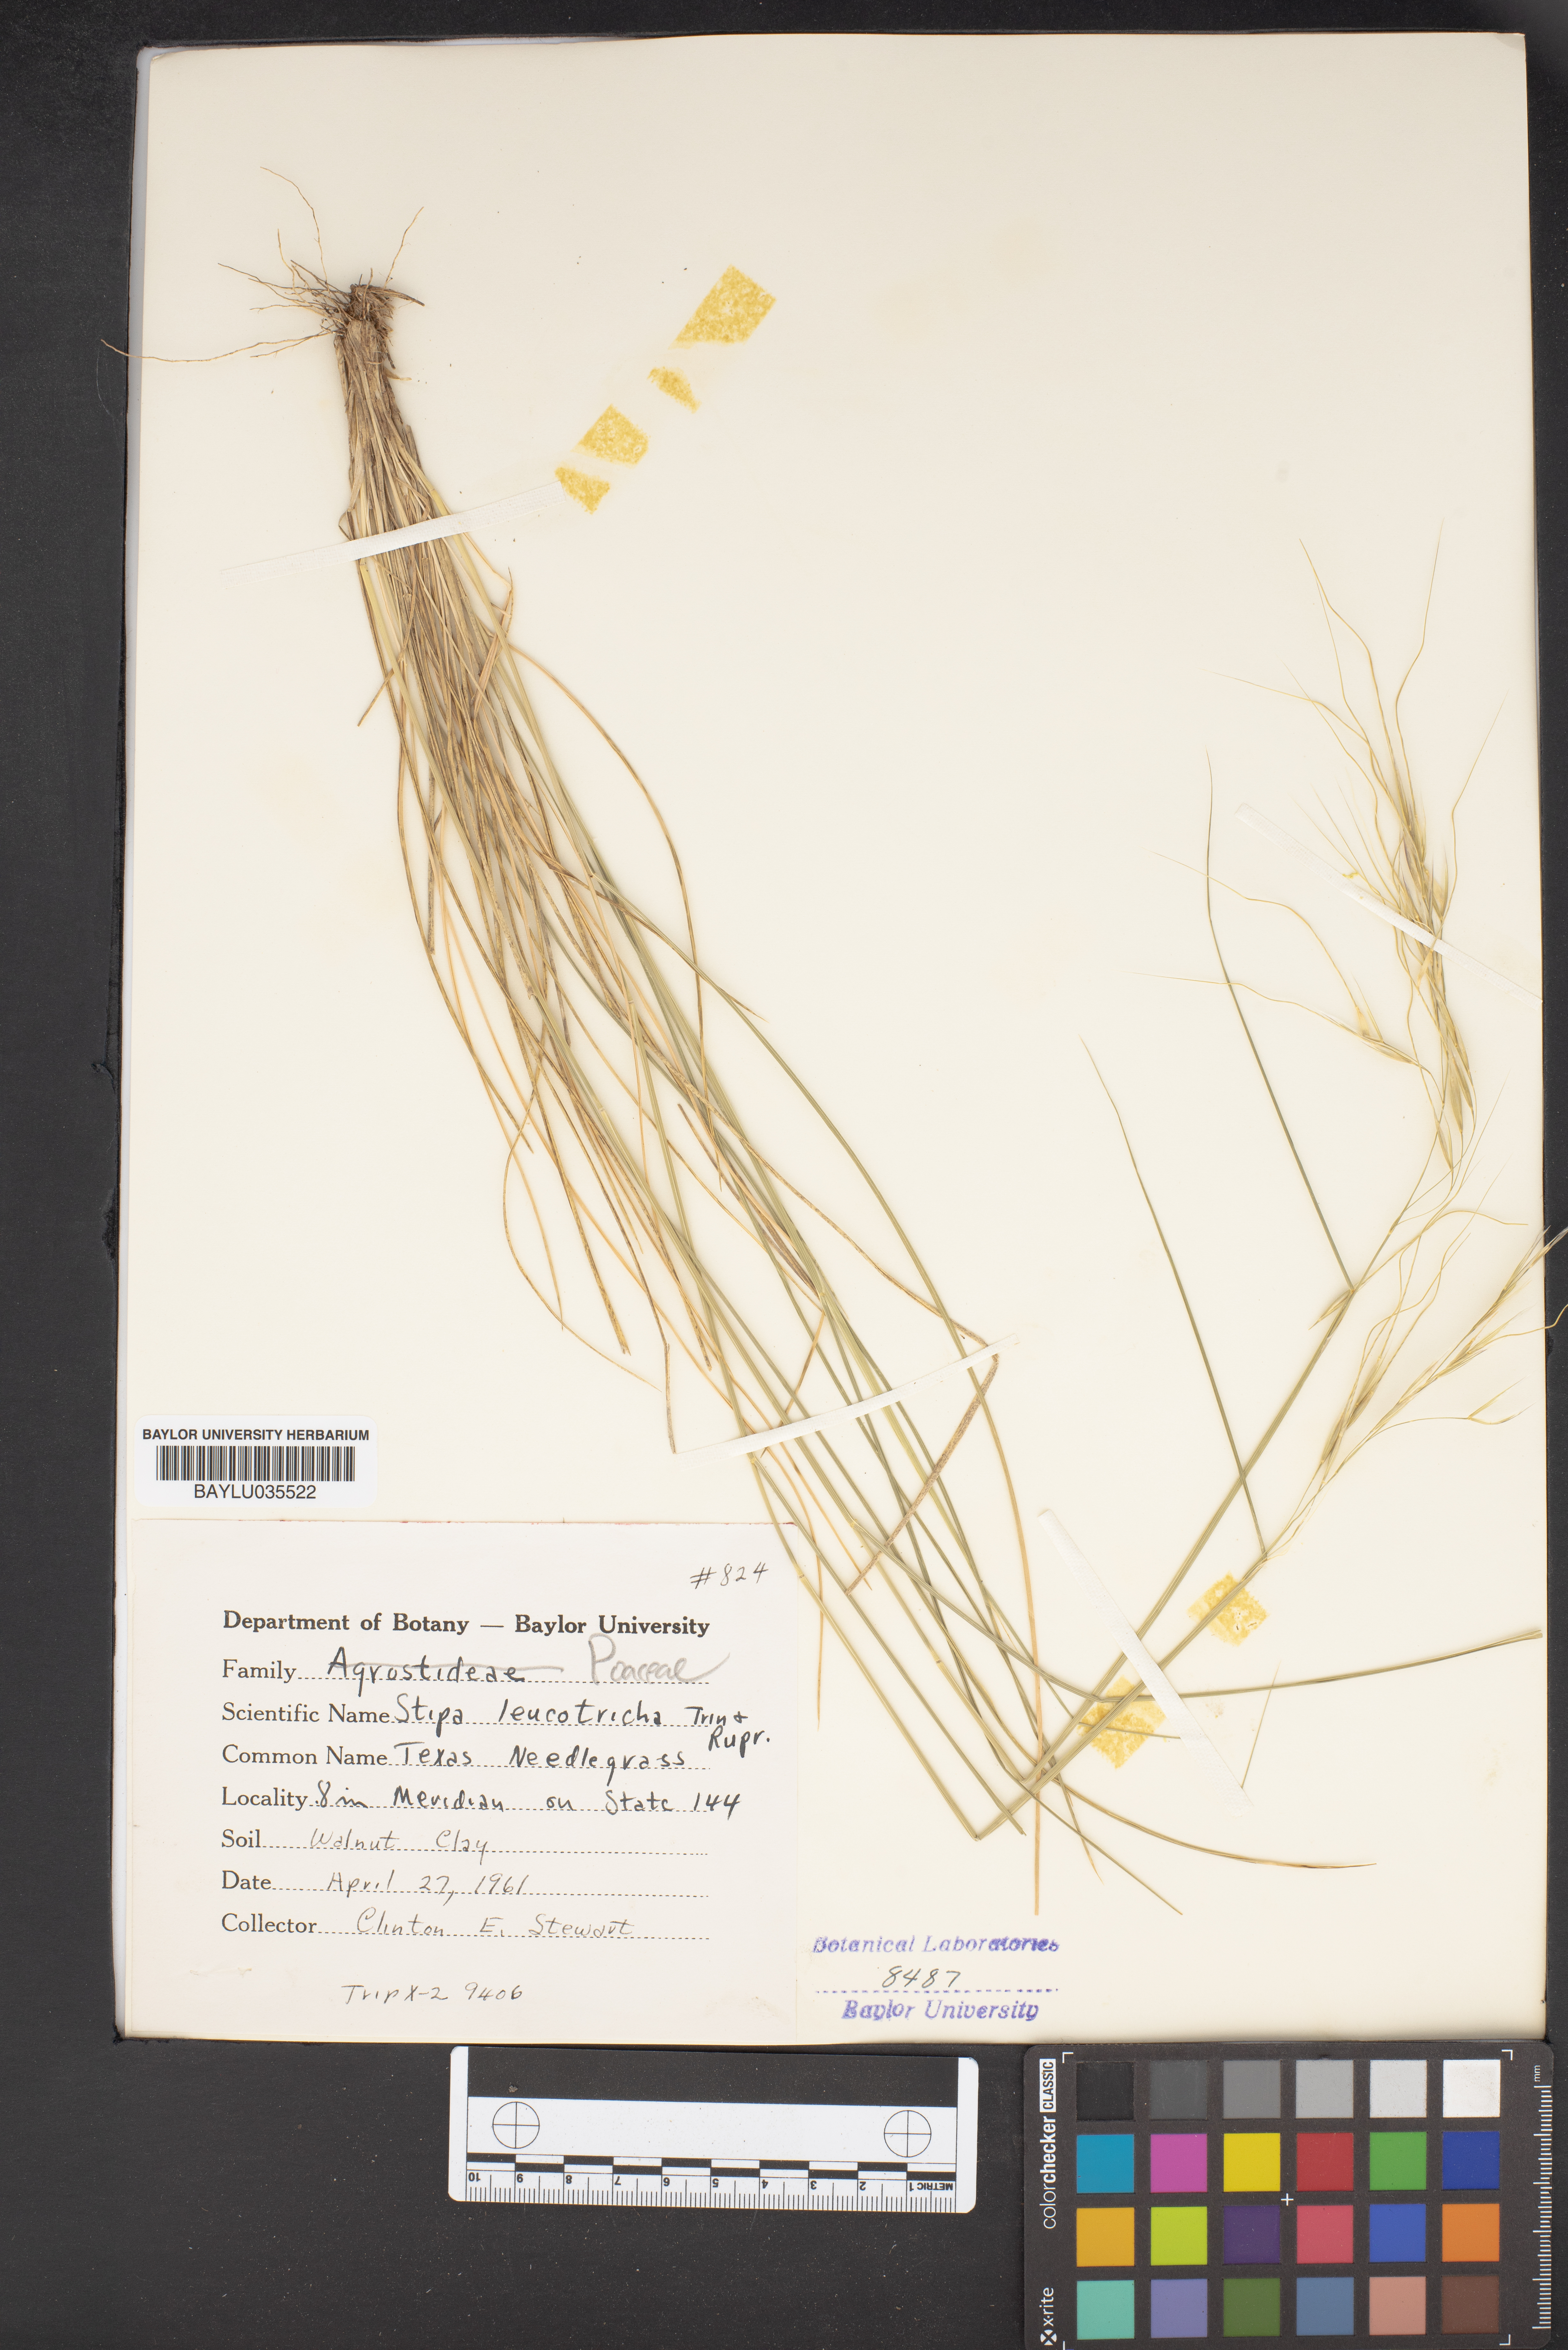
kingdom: Plantae
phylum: Tracheophyta
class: Liliopsida
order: Poales
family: Poaceae
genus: Nassella
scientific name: Nassella leucotricha
